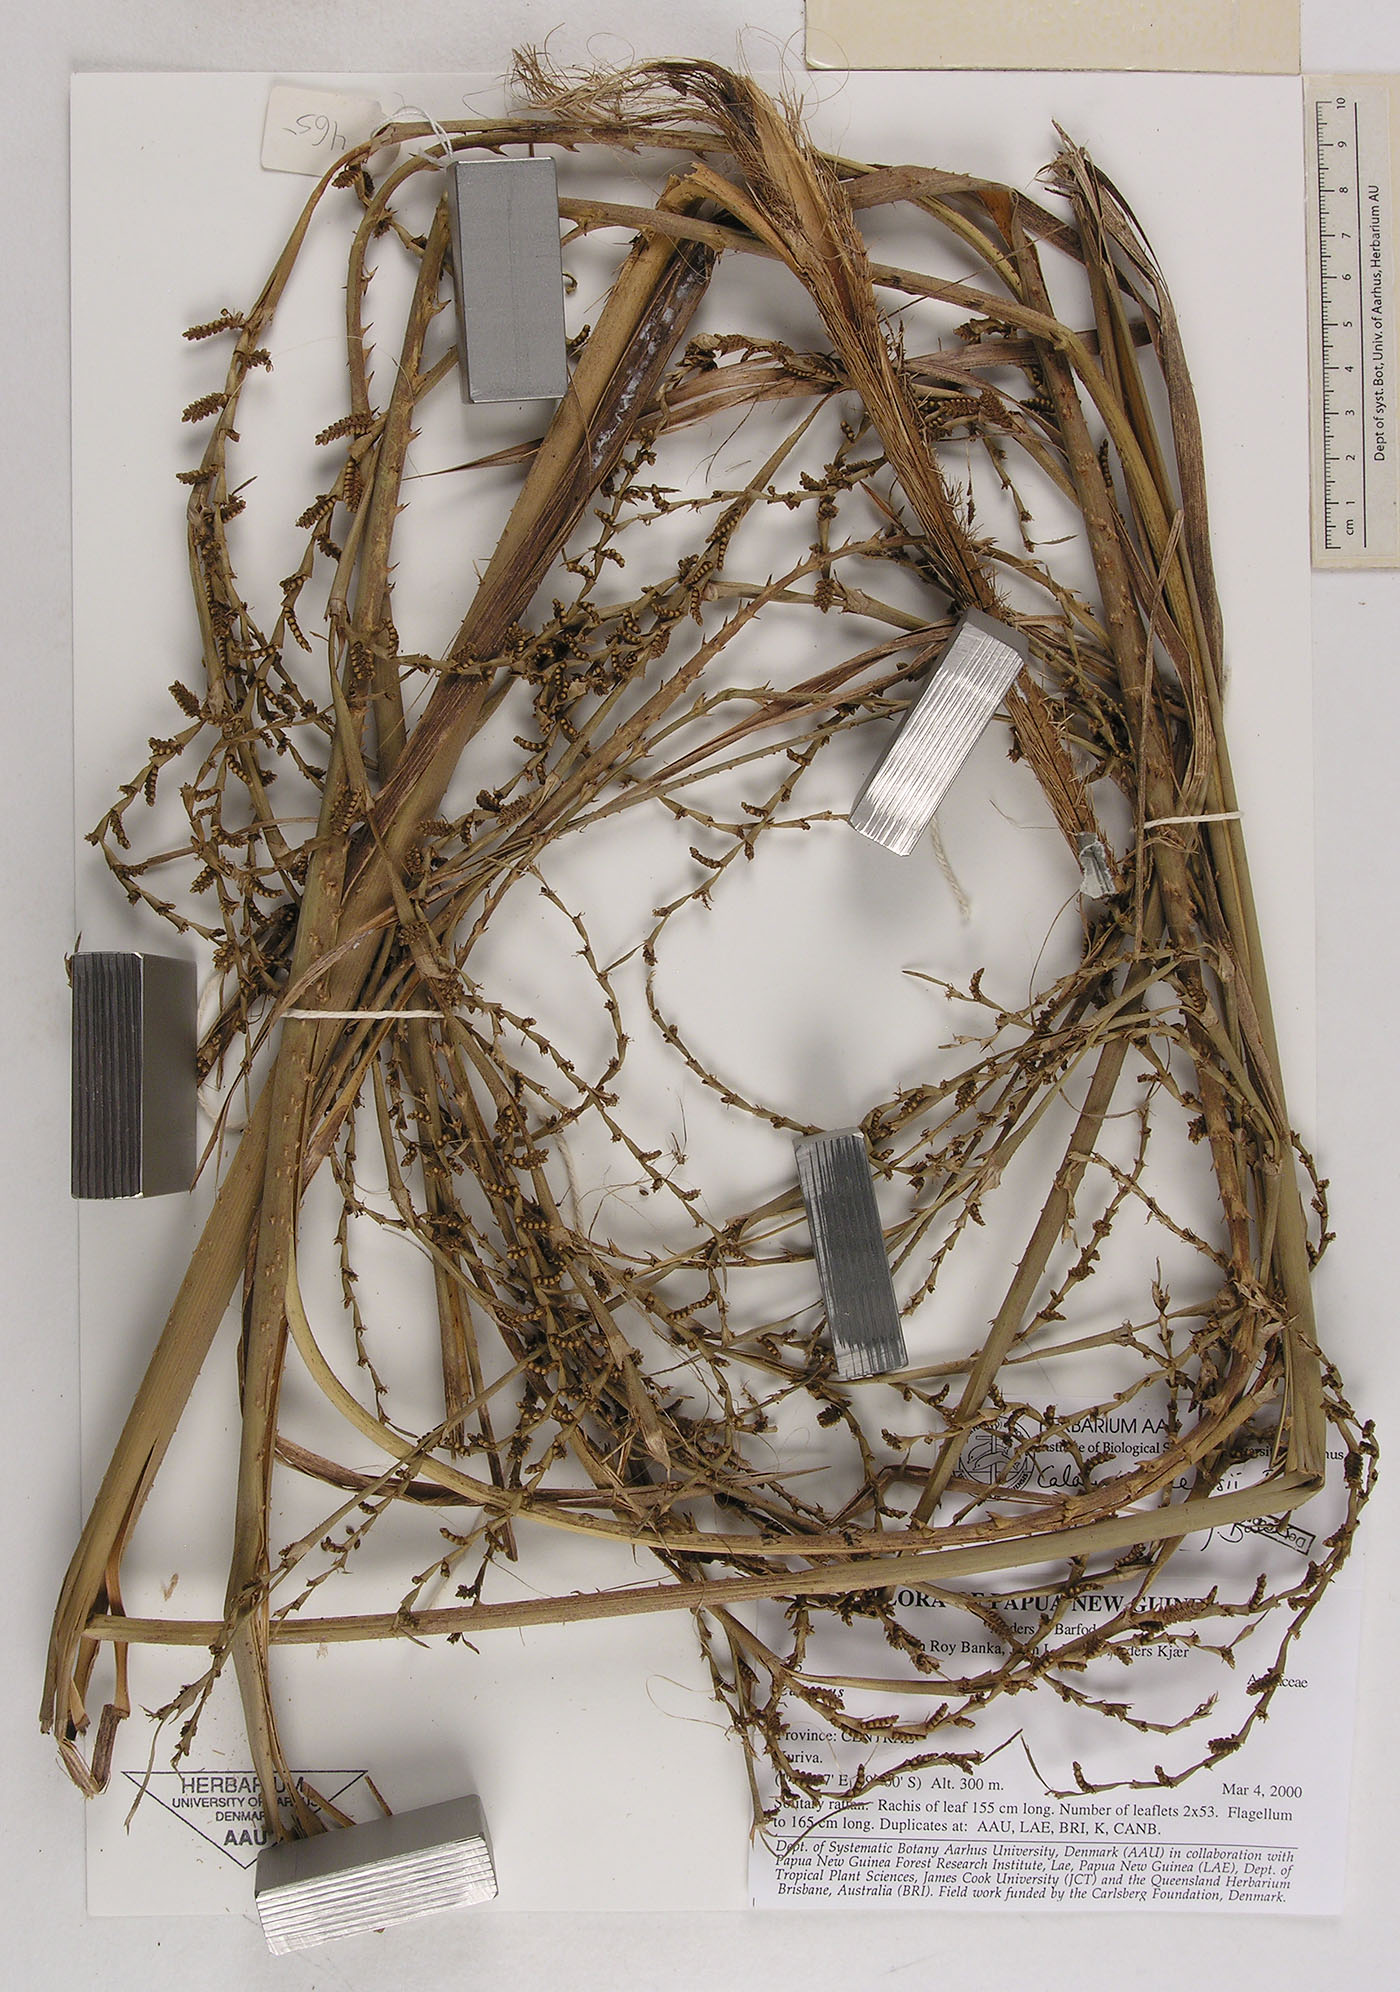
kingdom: Plantae
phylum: Tracheophyta
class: Liliopsida
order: Arecales
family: Arecaceae
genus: Calamus
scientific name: Calamus zebrinus
